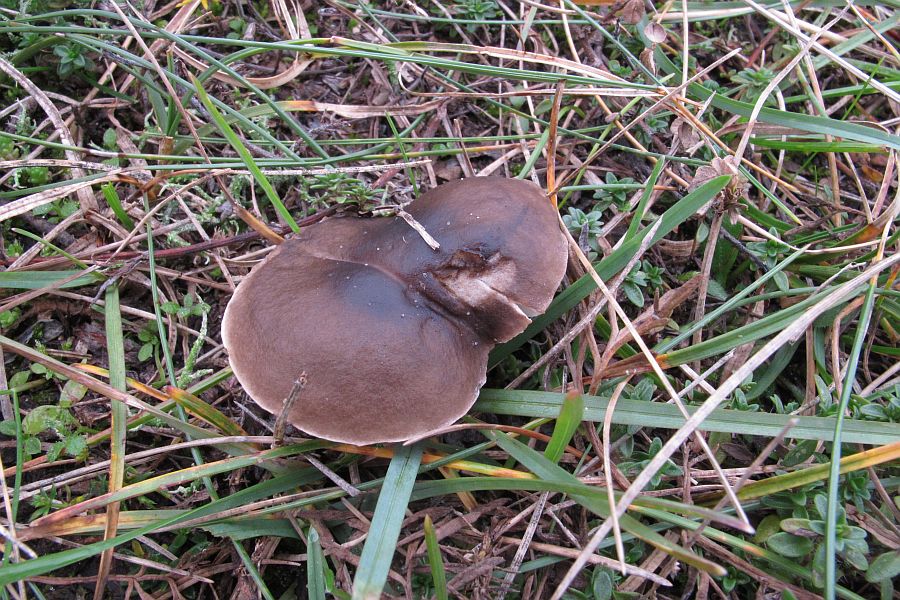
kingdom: Fungi
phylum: Basidiomycota
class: Agaricomycetes
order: Agaricales
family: Tricholomataceae
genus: Melanoleuca
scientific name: Melanoleuca polioleuca
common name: hvidbladet munkehat
